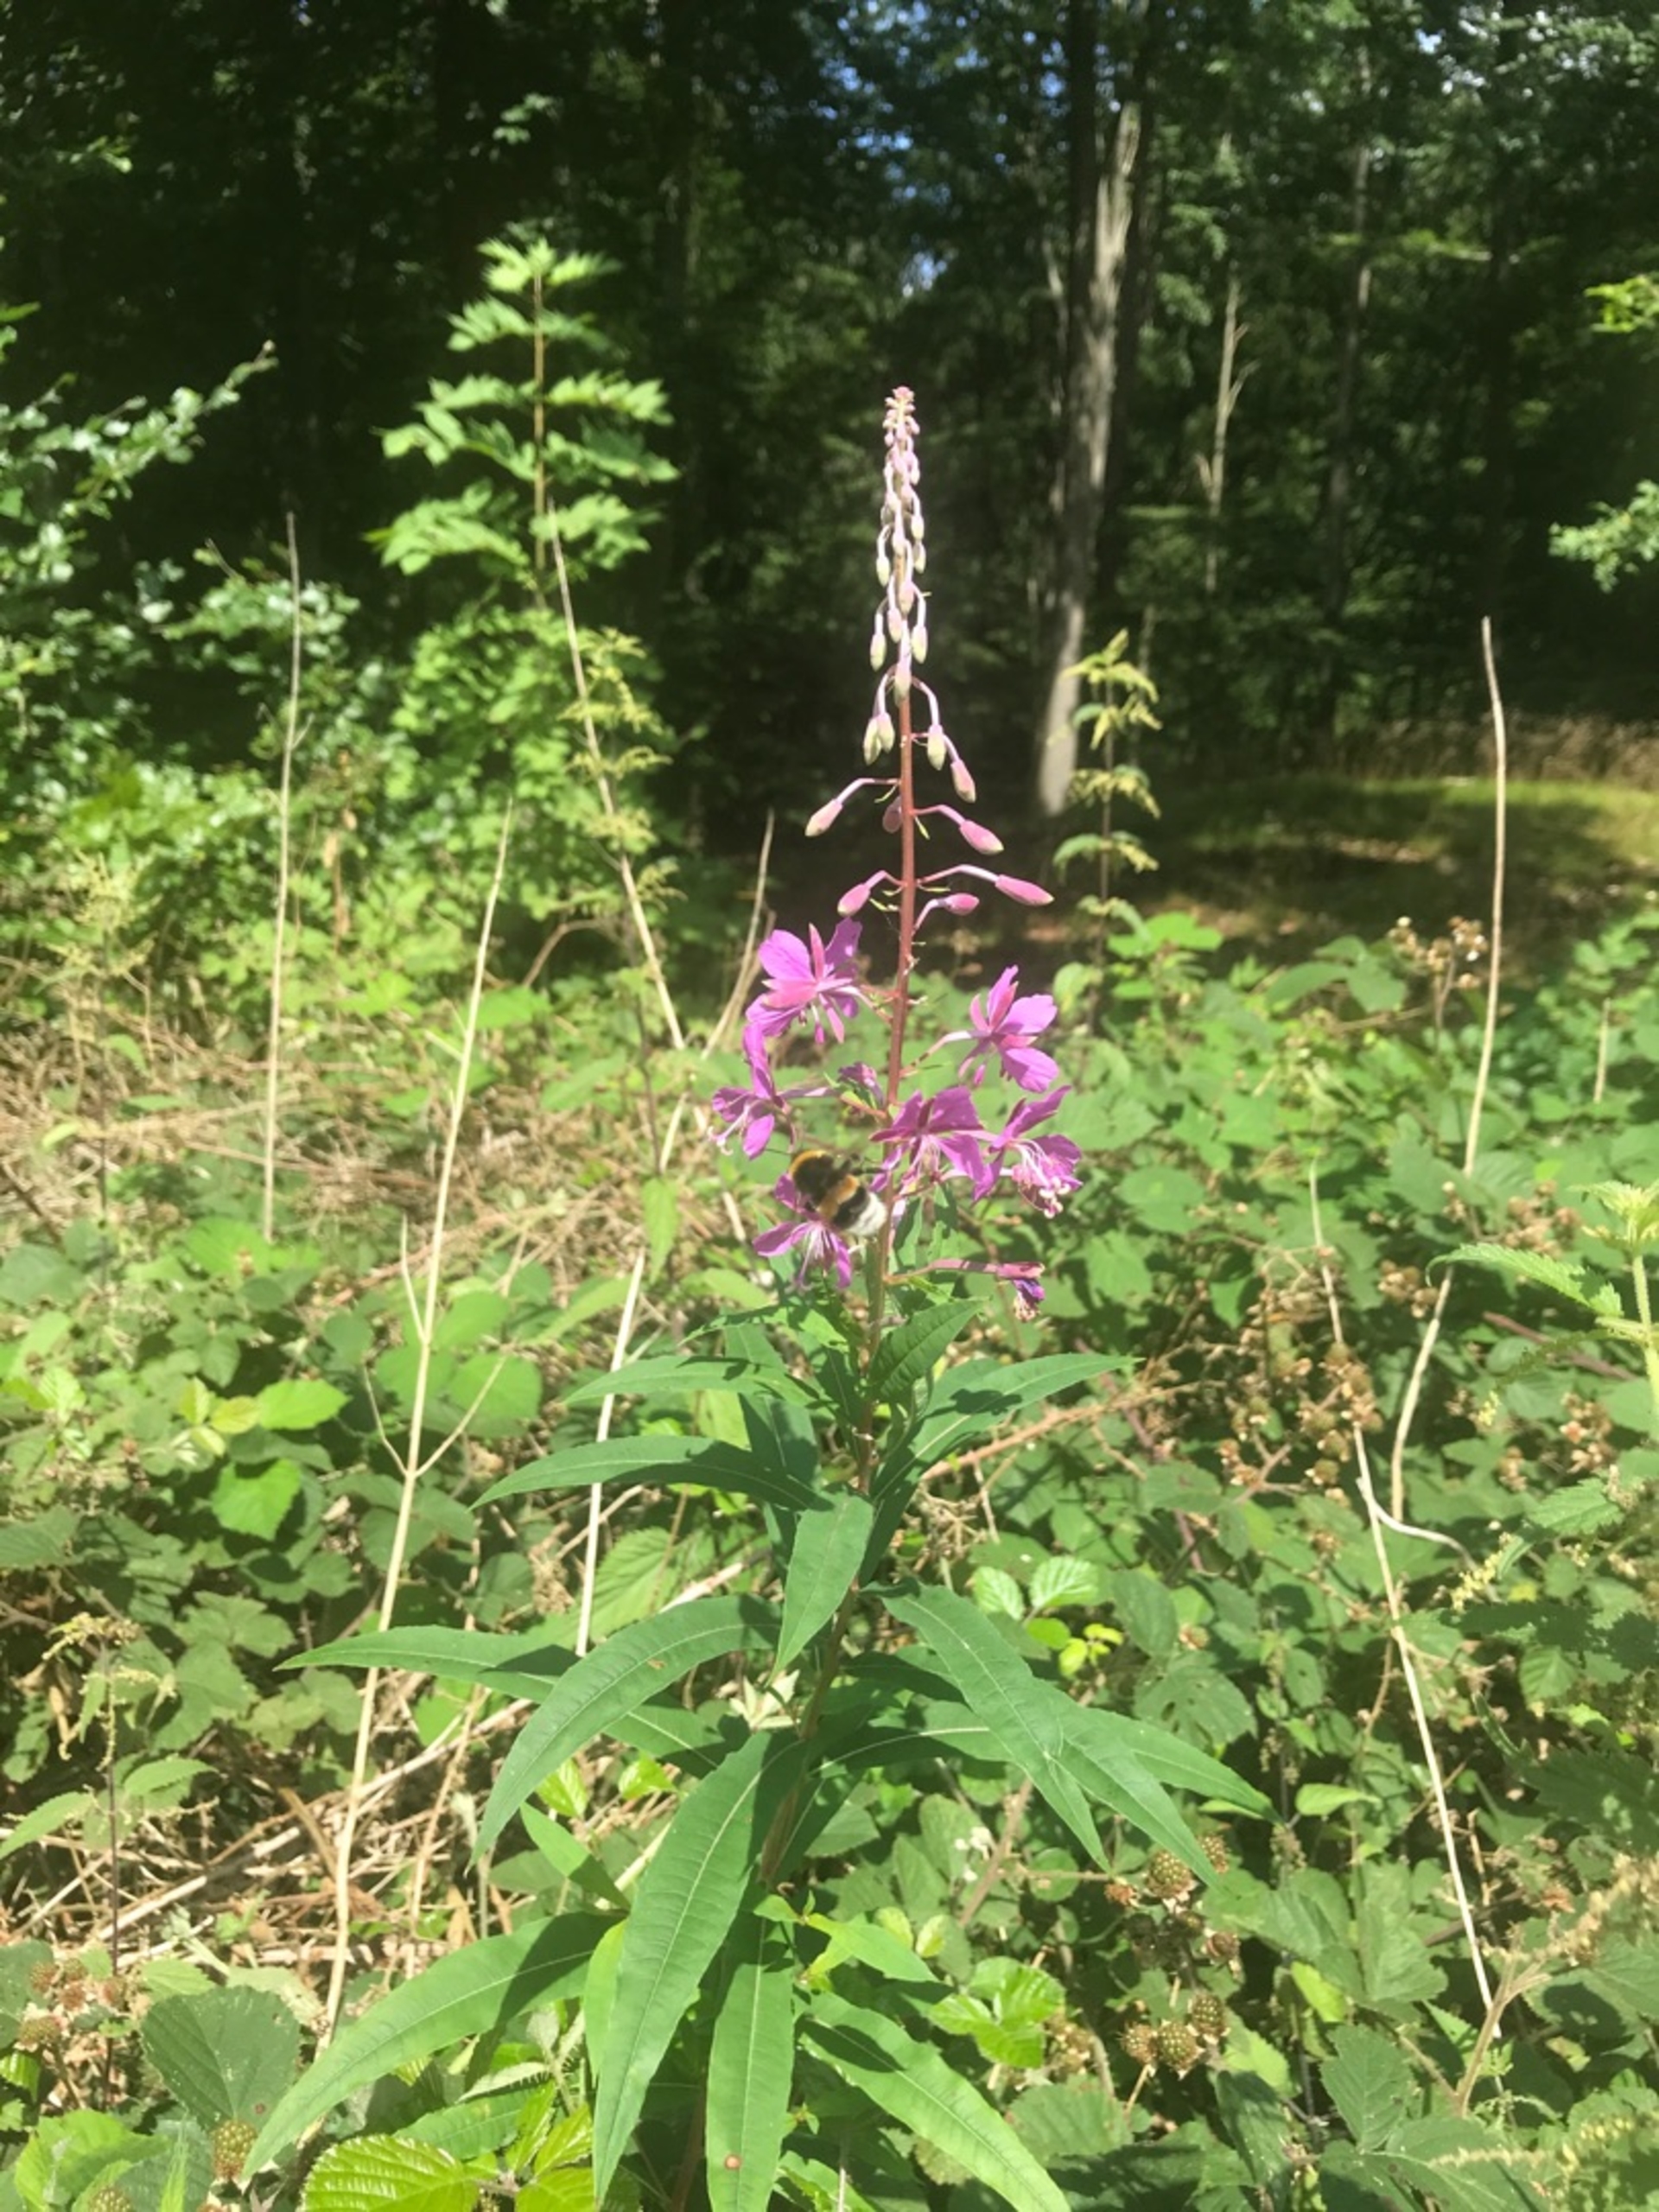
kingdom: Plantae
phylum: Tracheophyta
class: Magnoliopsida
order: Myrtales
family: Onagraceae
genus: Chamaenerion
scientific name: Chamaenerion angustifolium
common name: Gederams
